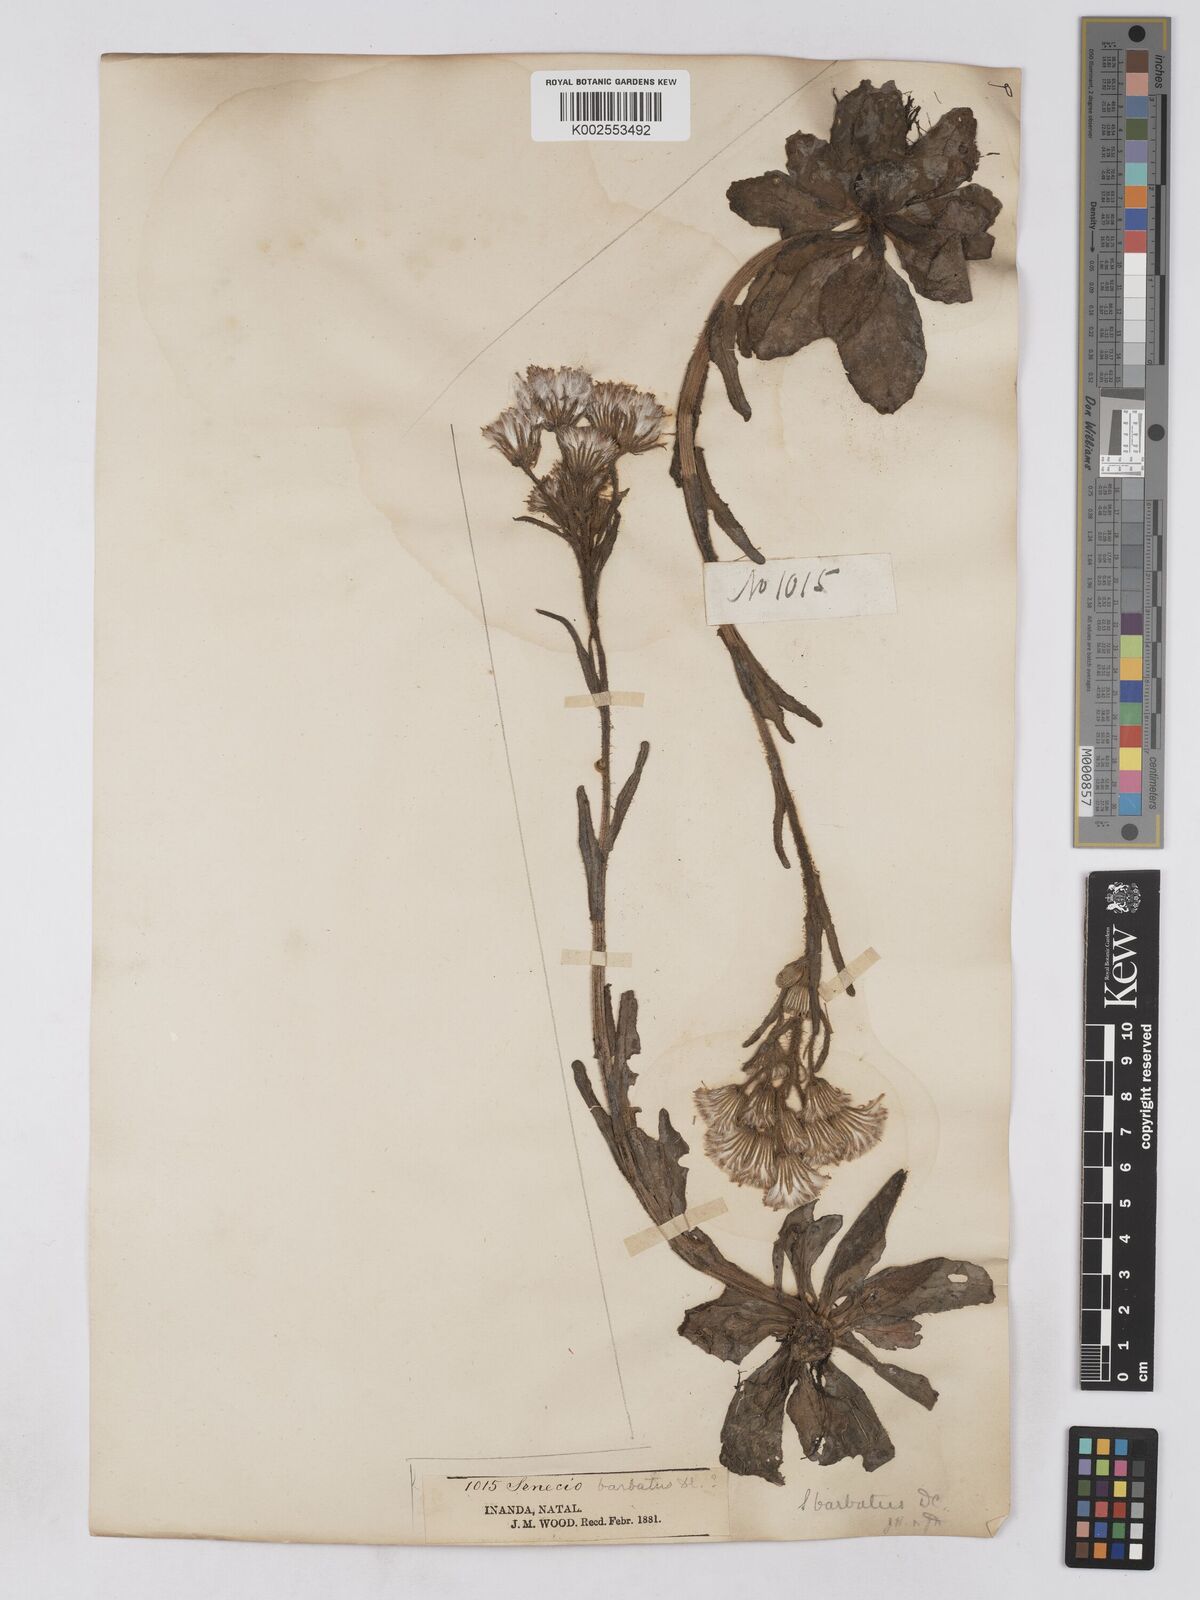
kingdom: Plantae
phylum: Tracheophyta
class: Magnoliopsida
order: Asterales
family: Asteraceae
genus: Senecio
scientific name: Senecio barbatus
